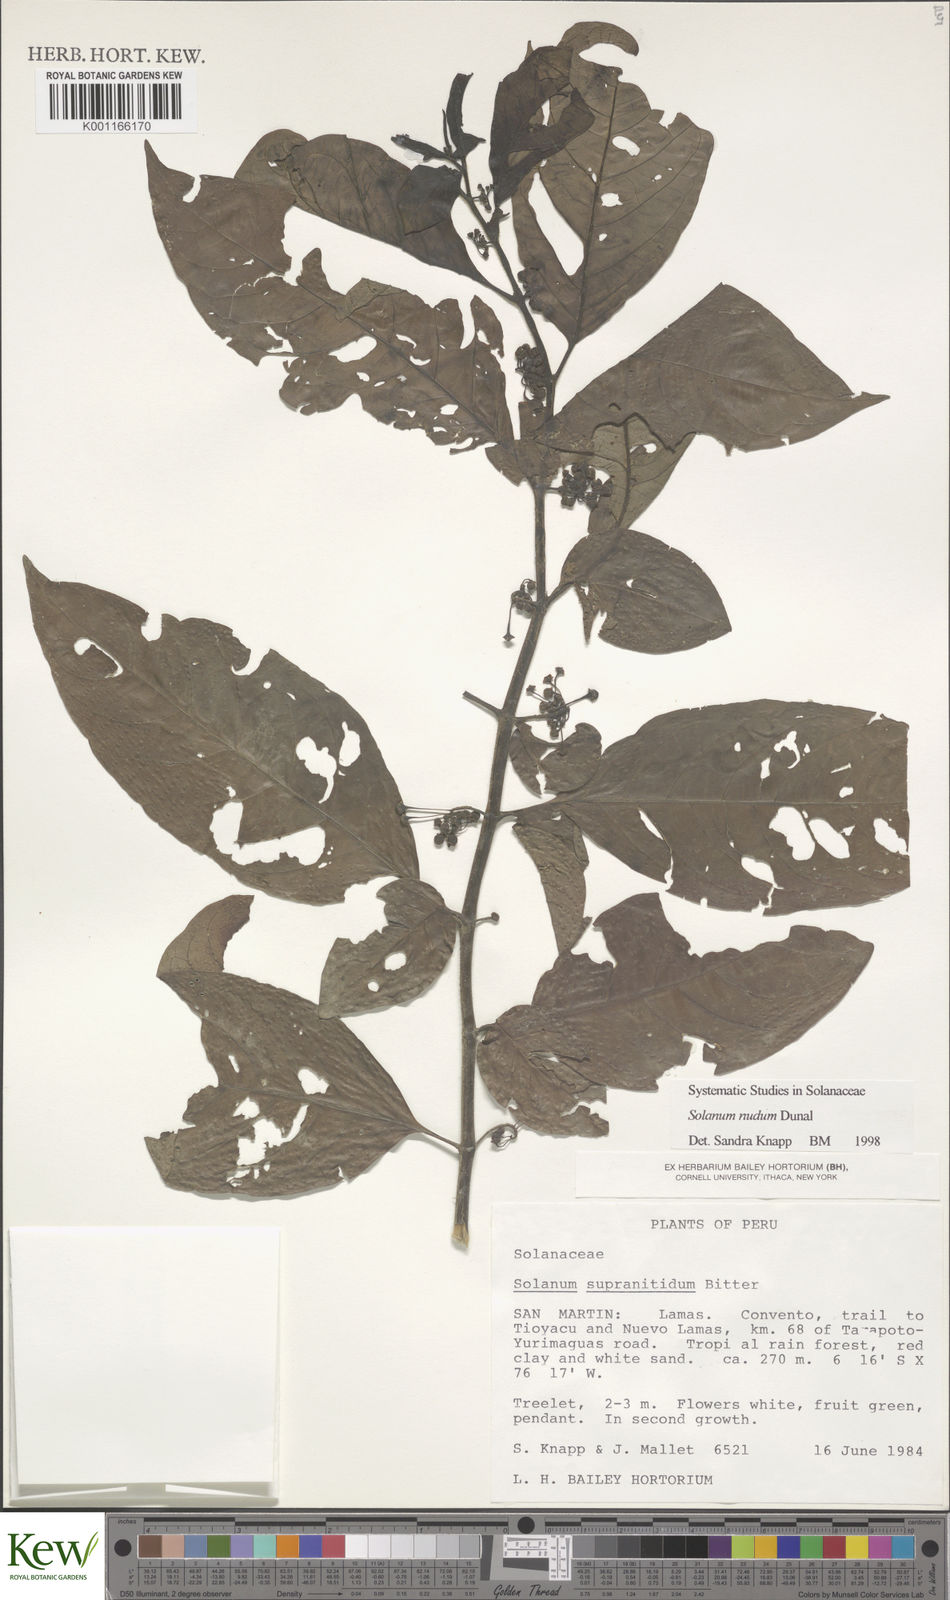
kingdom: Plantae
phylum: Tracheophyta
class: Magnoliopsida
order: Solanales
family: Solanaceae
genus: Solanum
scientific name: Solanum nudum
